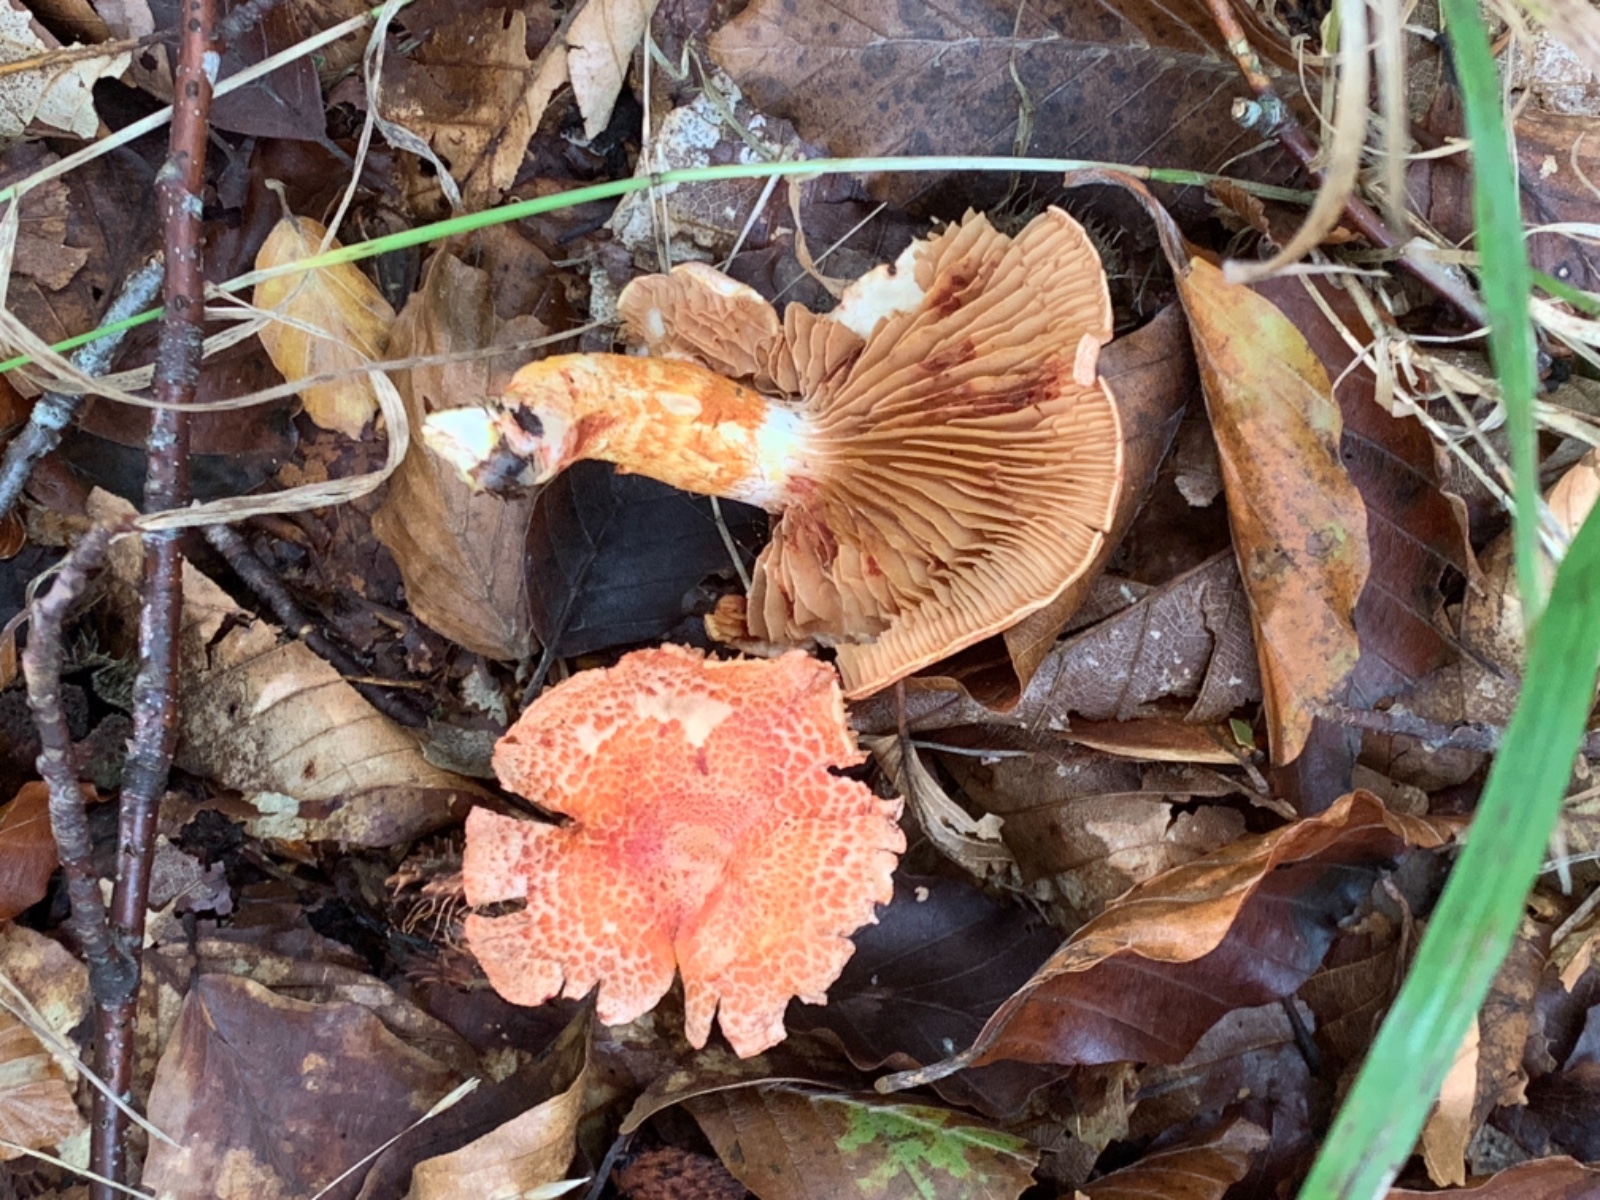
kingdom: Fungi
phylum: Basidiomycota
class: Agaricomycetes
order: Agaricales
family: Cortinariaceae
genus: Cortinarius
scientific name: Cortinarius bolaris
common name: cinnoberskællet slørhat
